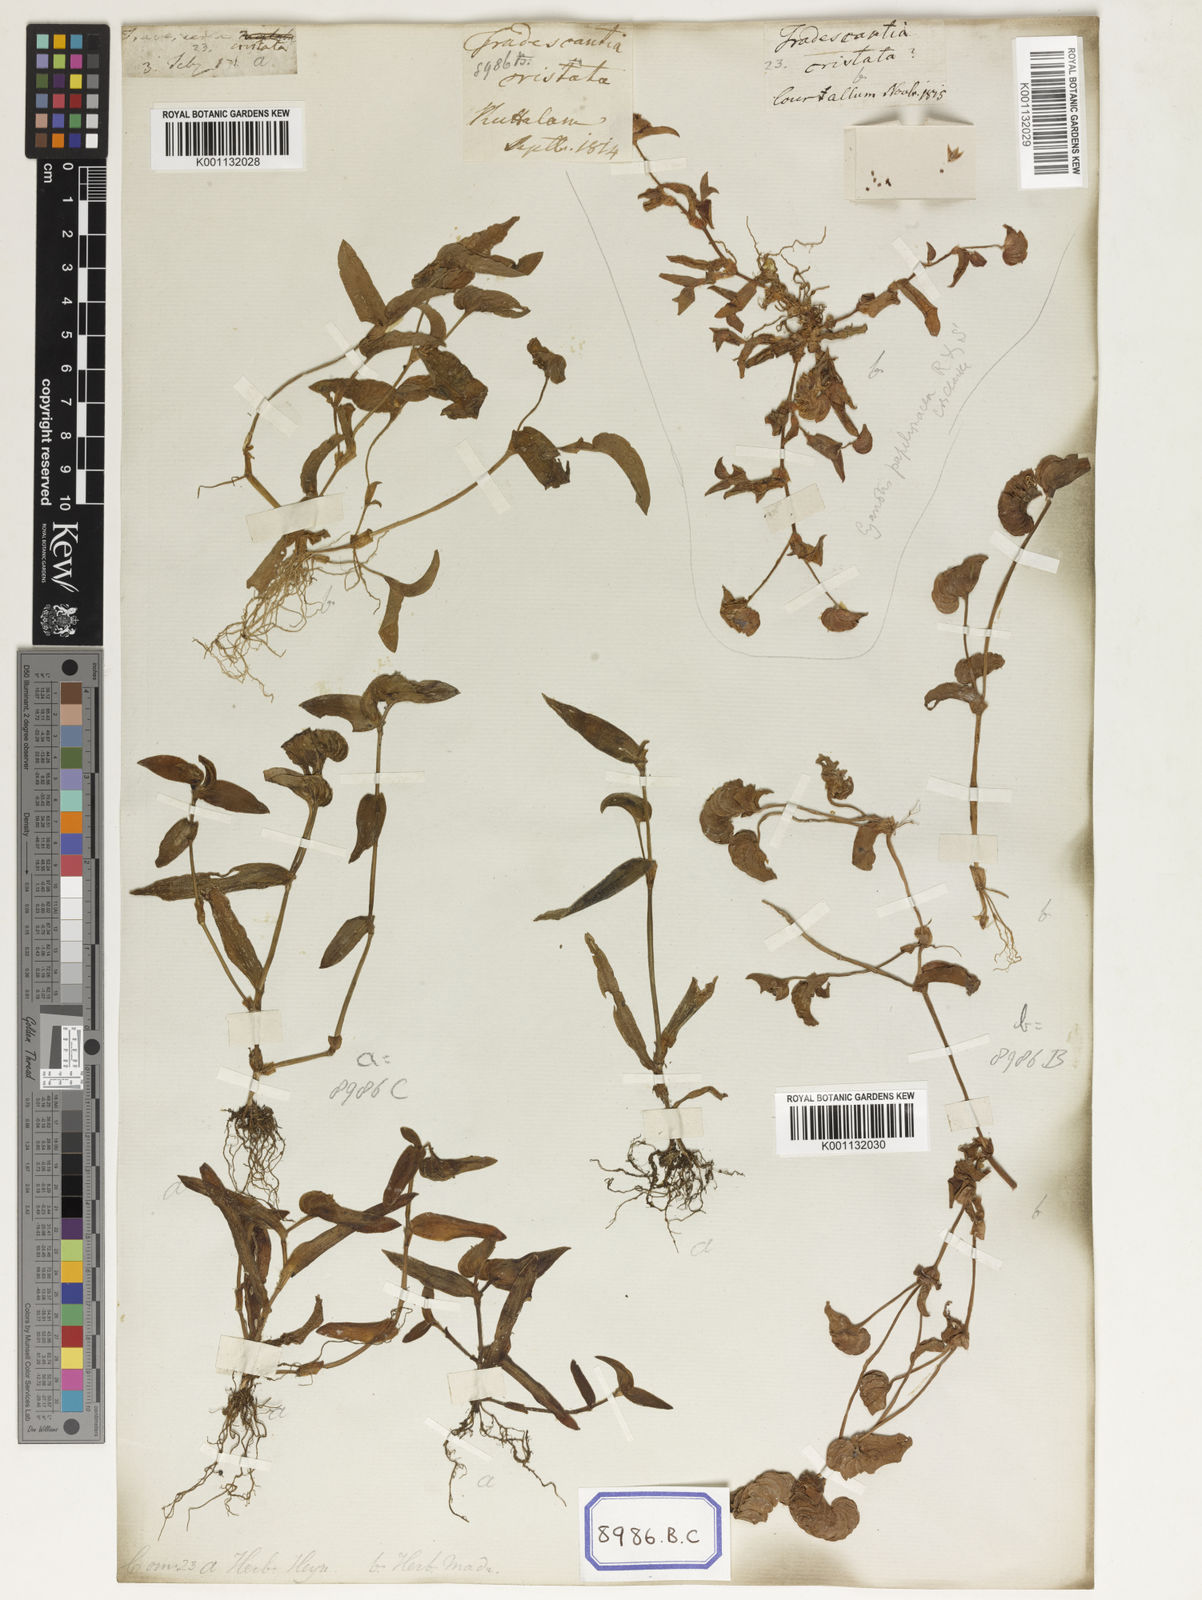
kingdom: Plantae
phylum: Tracheophyta
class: Liliopsida
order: Commelinales
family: Commelinaceae
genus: Cyanotis
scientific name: Cyanotis cristata
